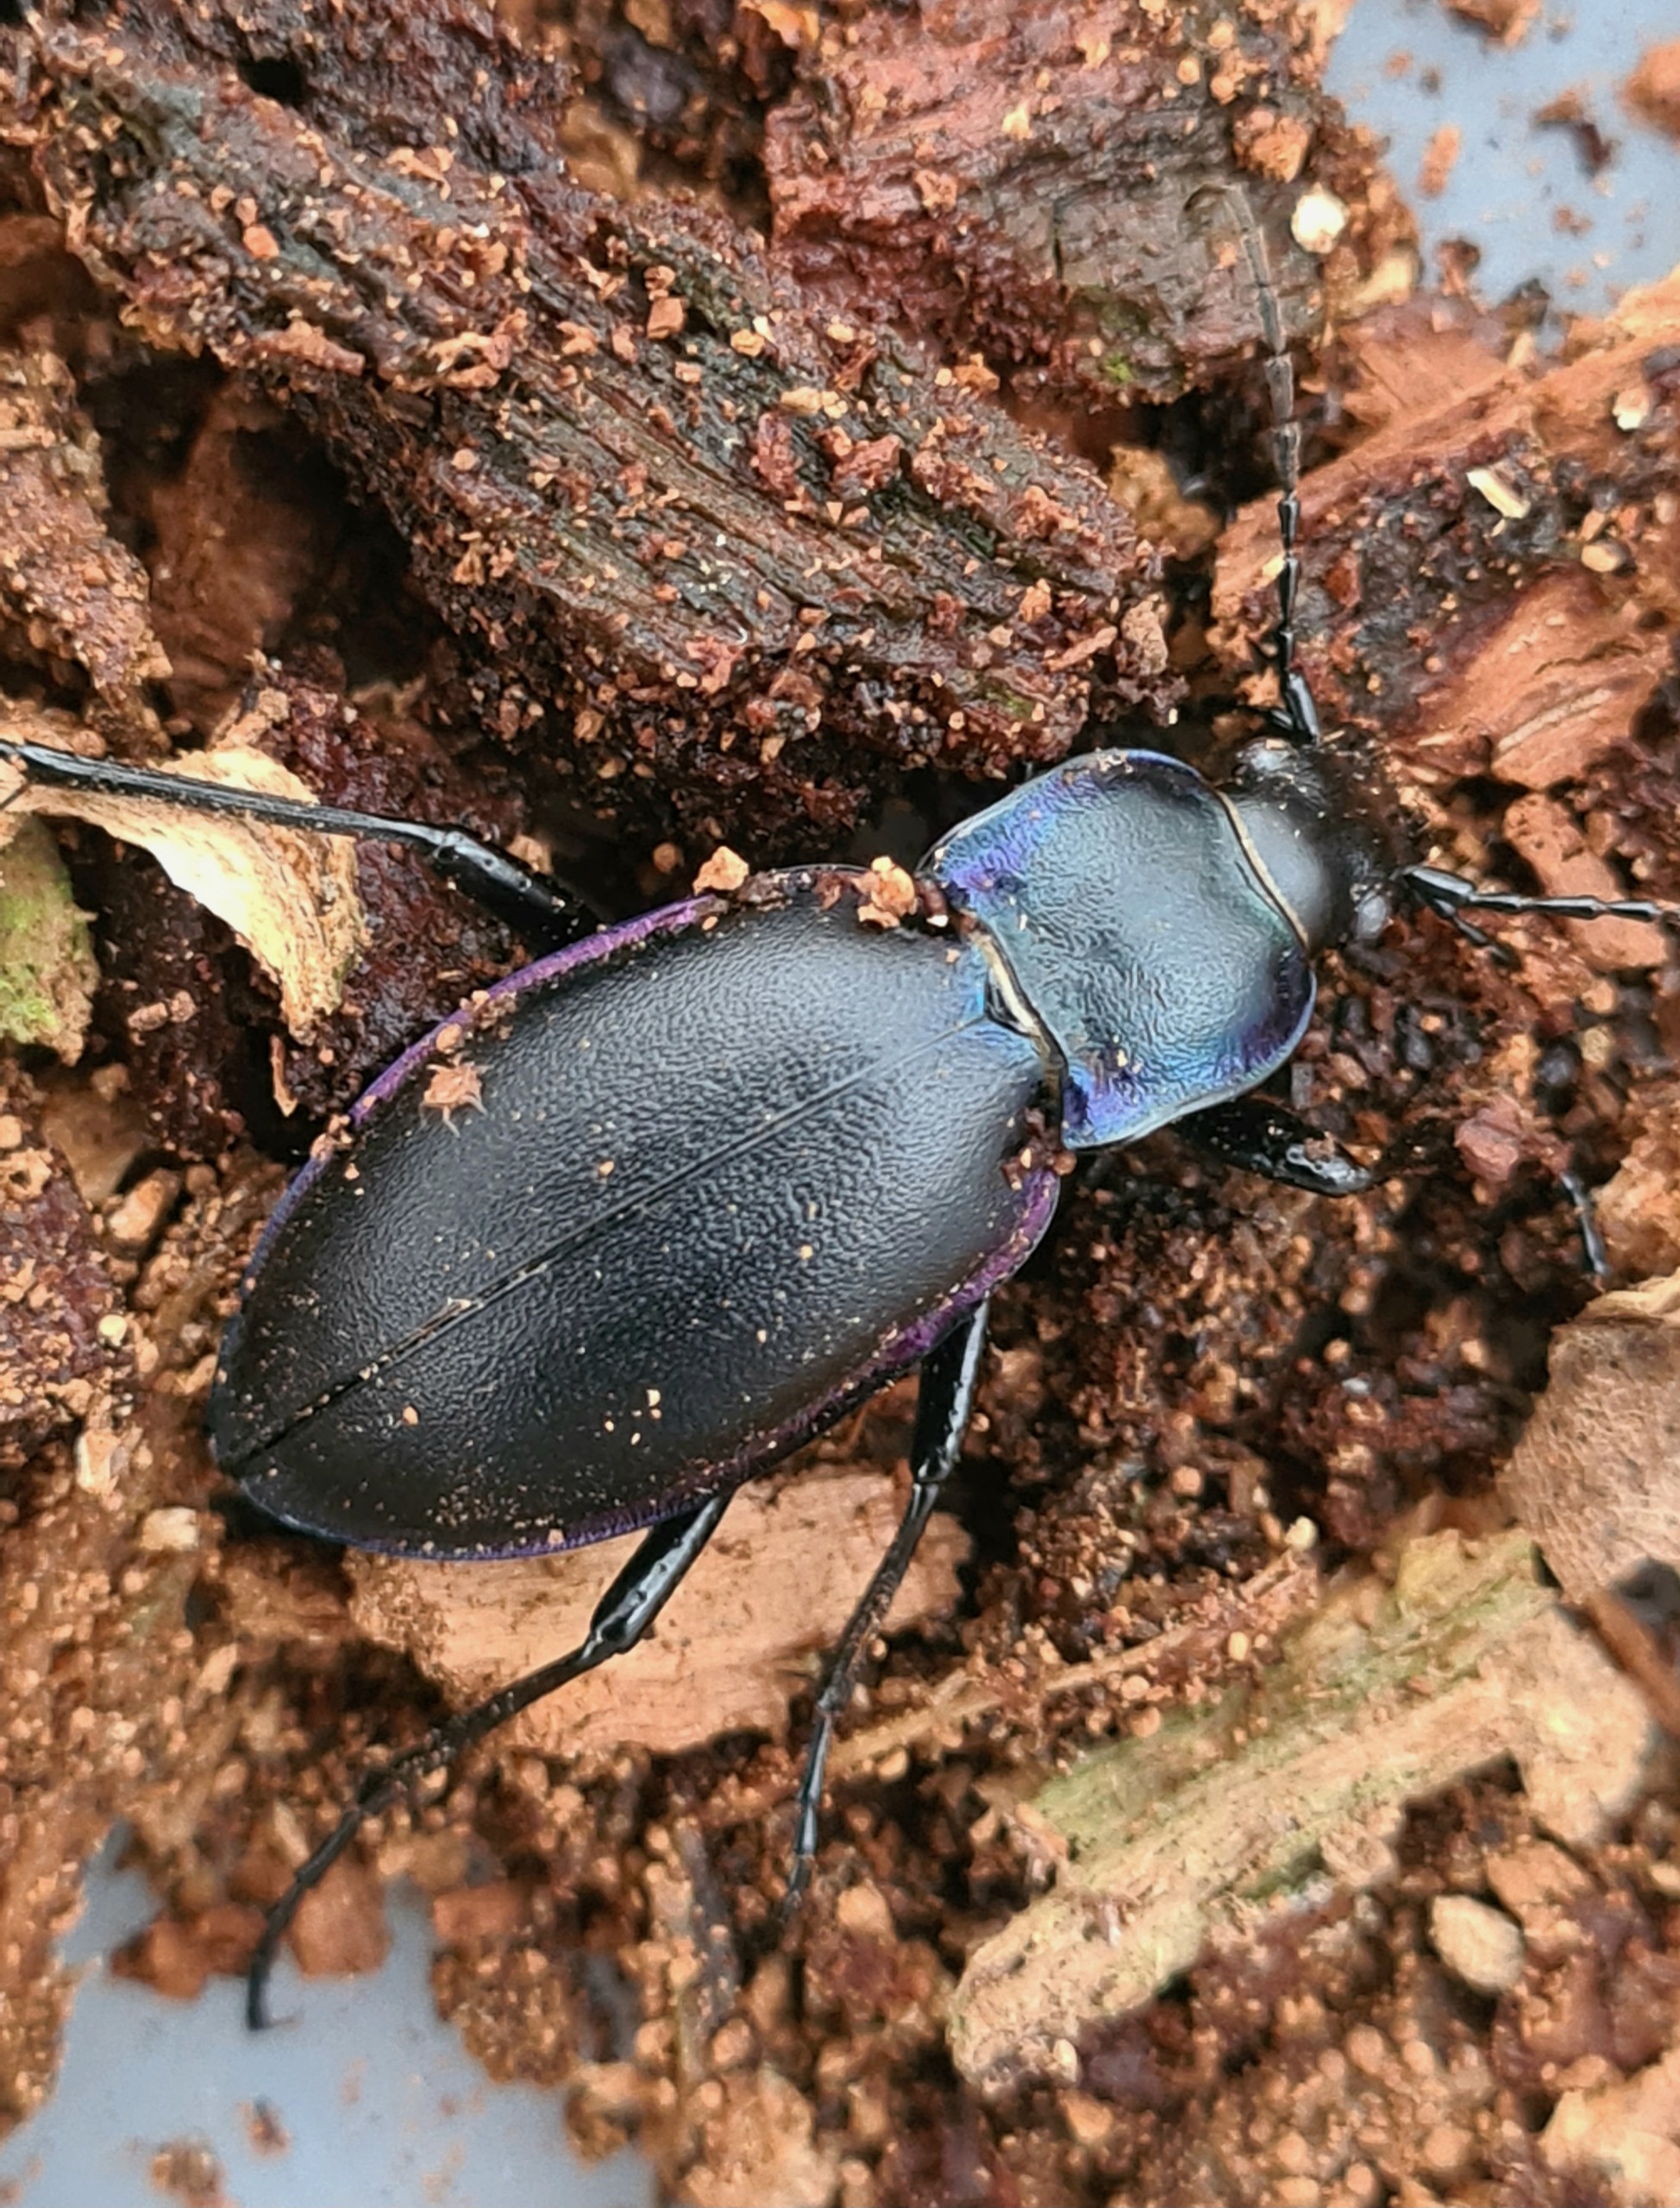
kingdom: Animalia
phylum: Arthropoda
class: Insecta
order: Coleoptera
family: Carabidae
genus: Carabus
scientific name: Carabus violaceus
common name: Violetrandet løber
